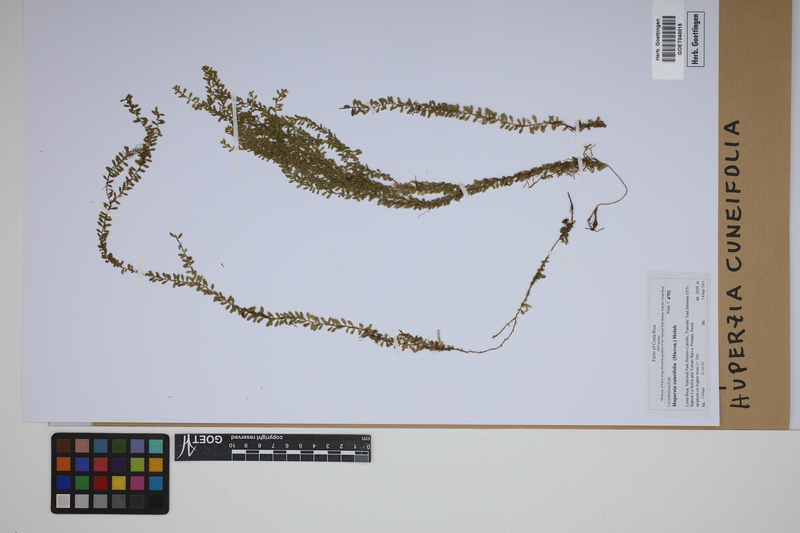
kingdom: Plantae
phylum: Tracheophyta
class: Lycopodiopsida
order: Lycopodiales
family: Lycopodiaceae
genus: Phlegmariurus
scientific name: Phlegmariurus cuneifolius
